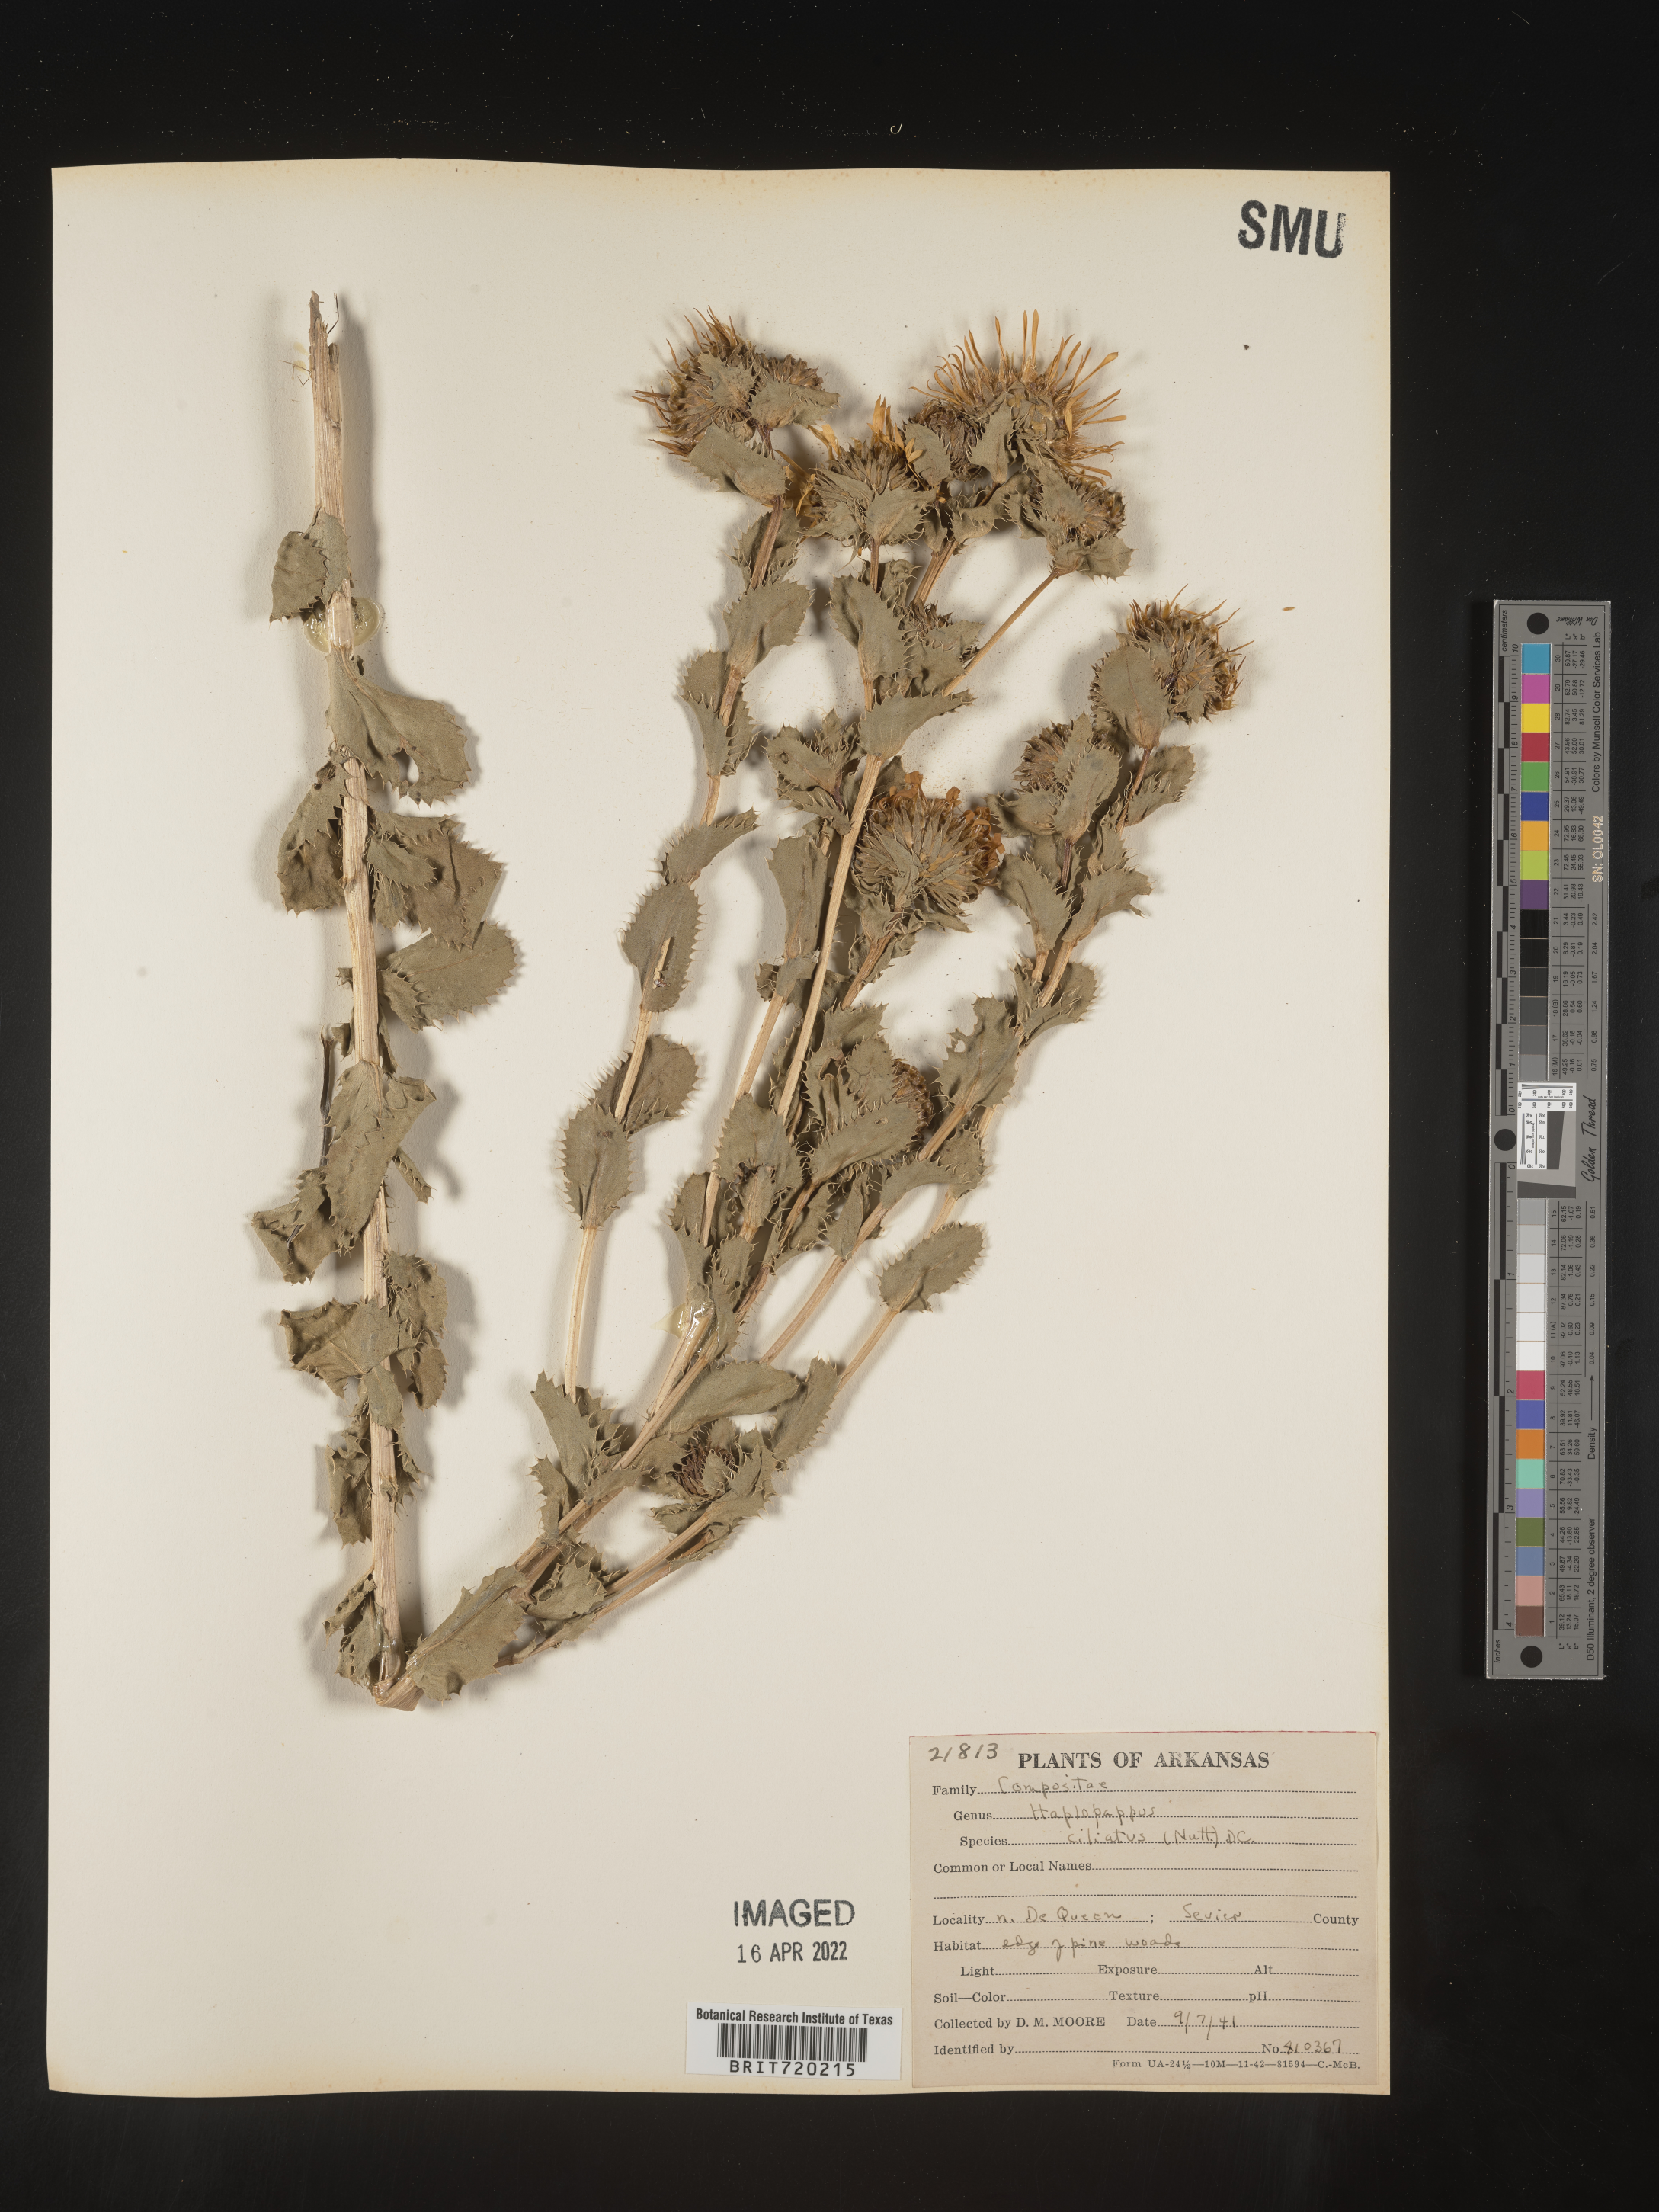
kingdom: Plantae
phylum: Tracheophyta
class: Magnoliopsida
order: Asterales
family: Asteraceae
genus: Grindelia
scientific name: Grindelia ciliata
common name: Goldenweed
